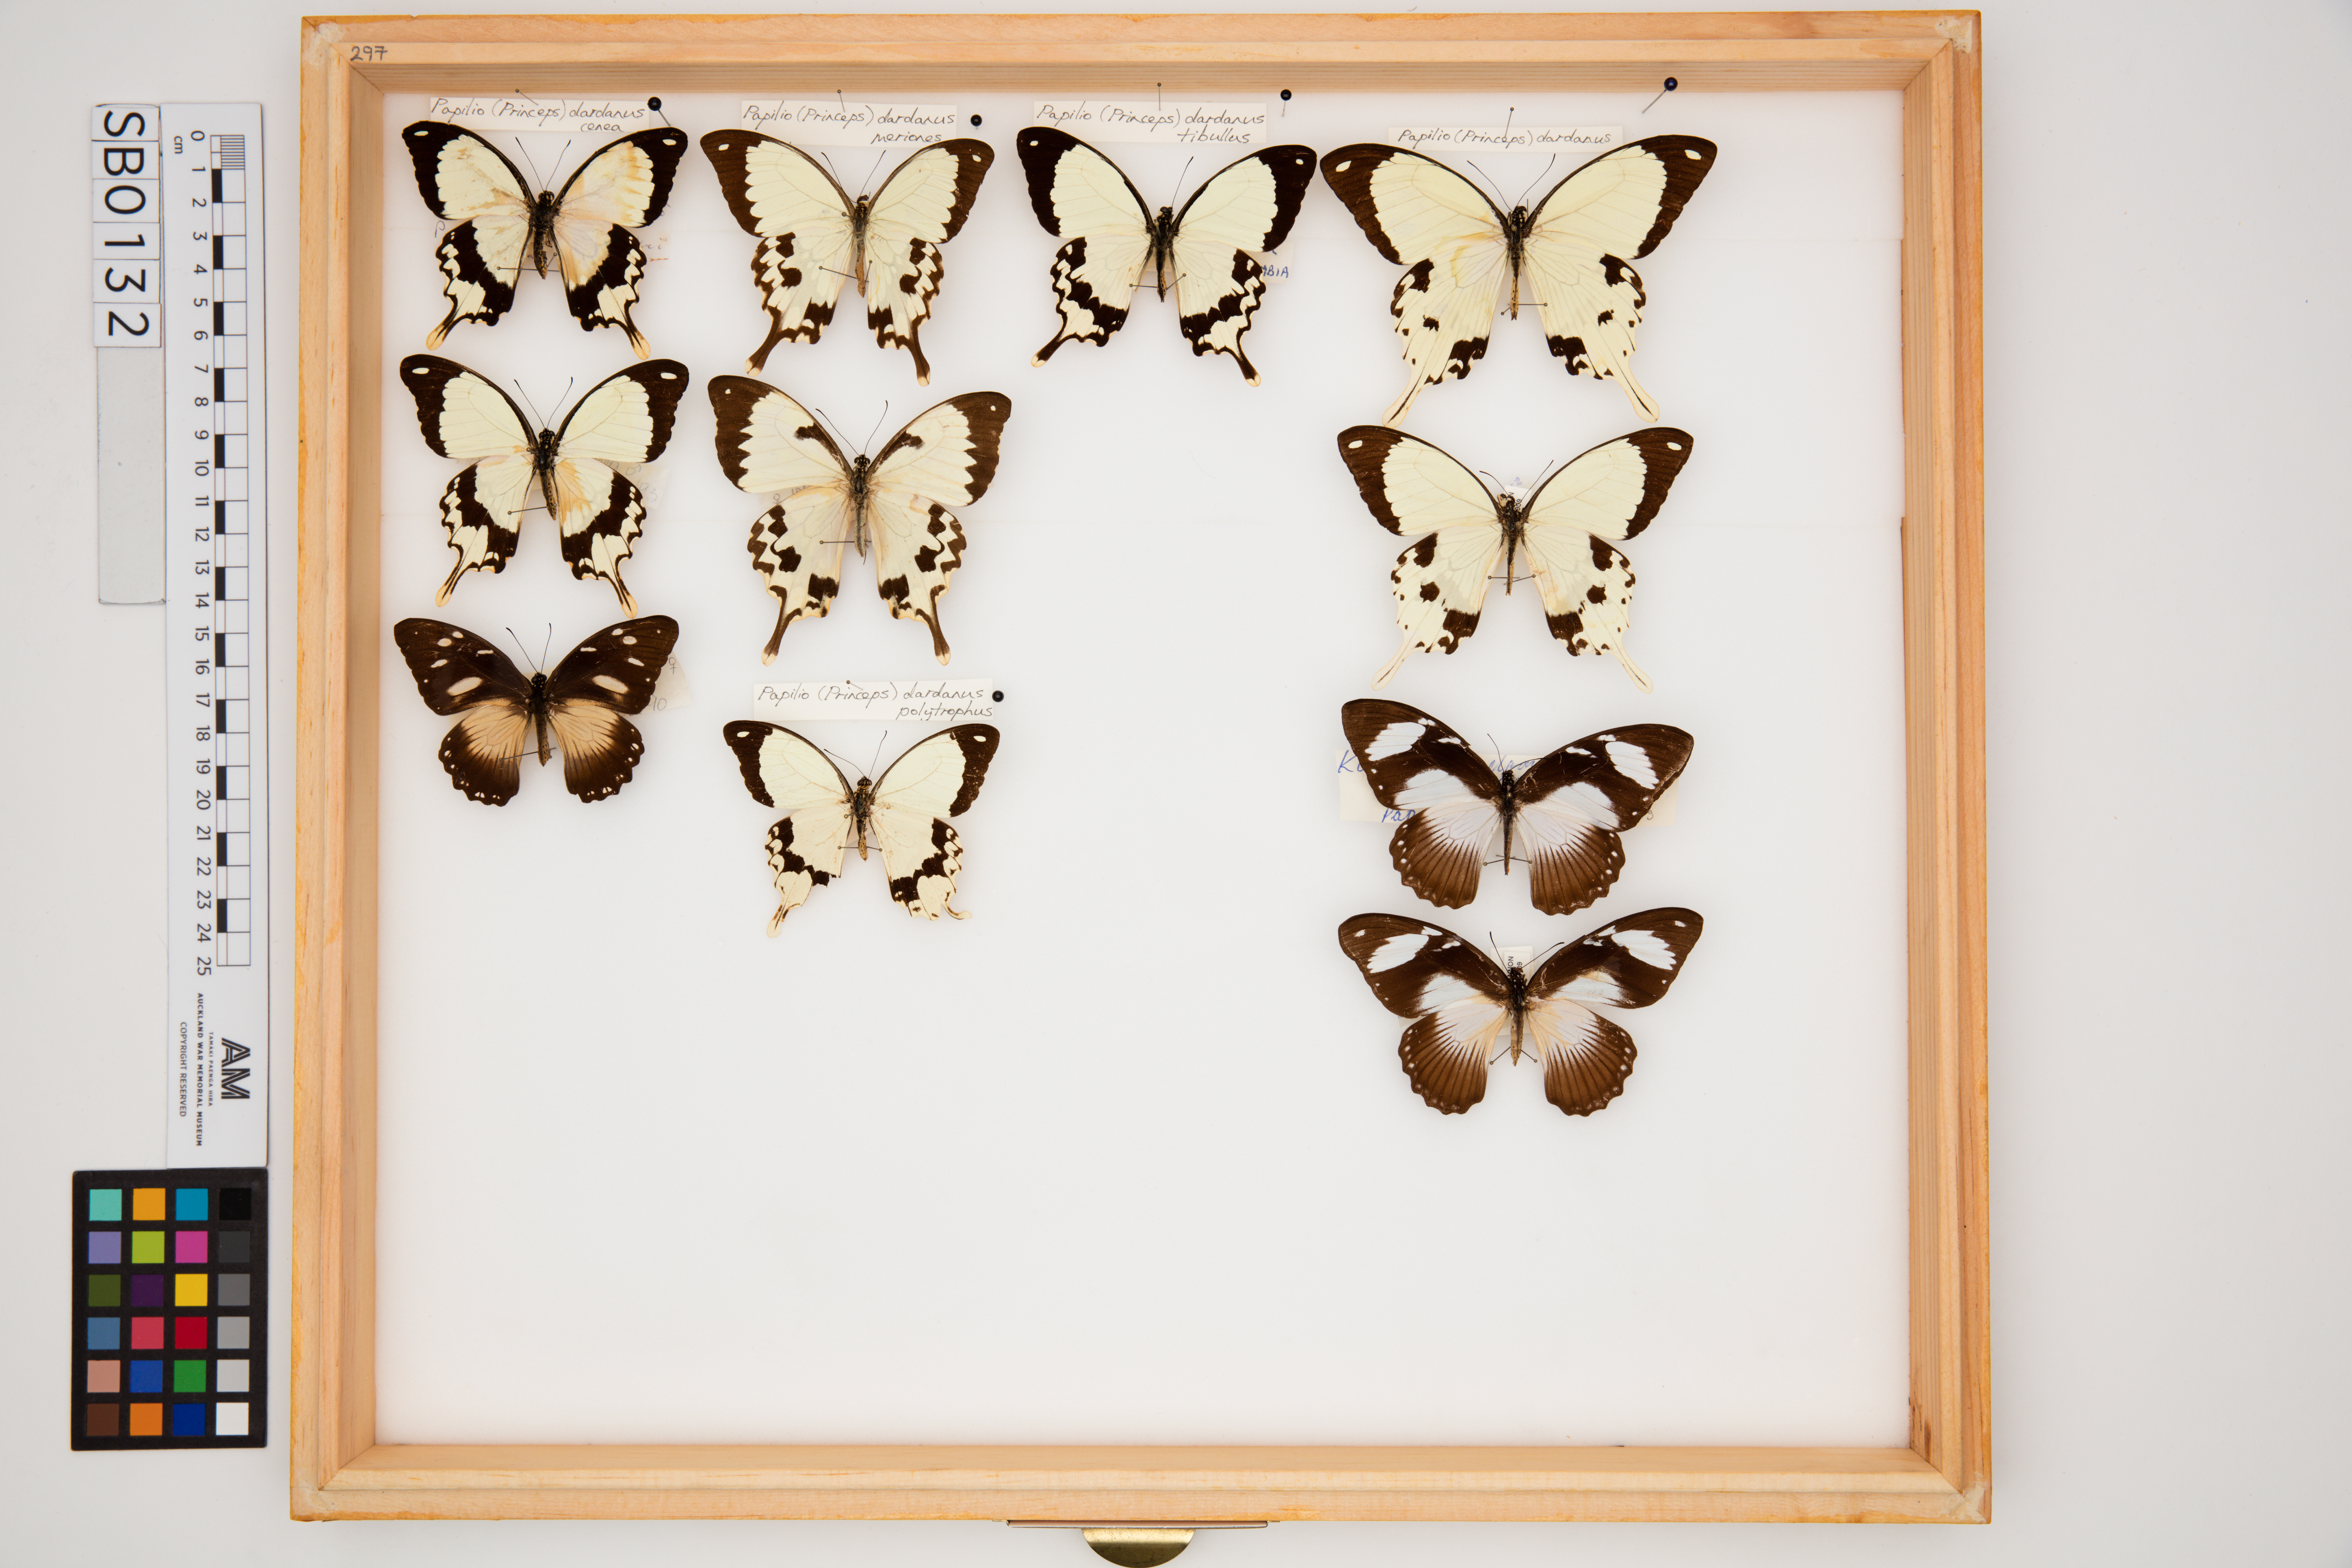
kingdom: Animalia
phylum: Arthropoda
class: Insecta
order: Lepidoptera
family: Papilionidae
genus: Papilio
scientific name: Papilio dardanus
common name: Flying handkerchief
